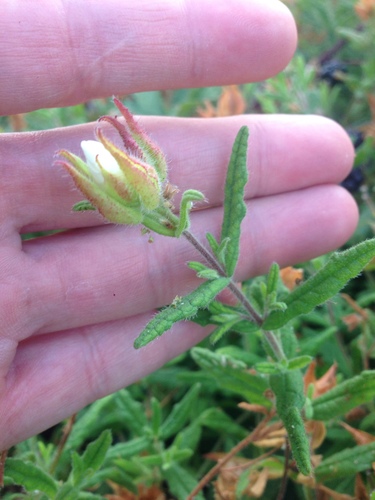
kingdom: Plantae
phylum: Tracheophyta
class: Magnoliopsida
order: Malvales
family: Cistaceae
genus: Cistus
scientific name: Cistus
